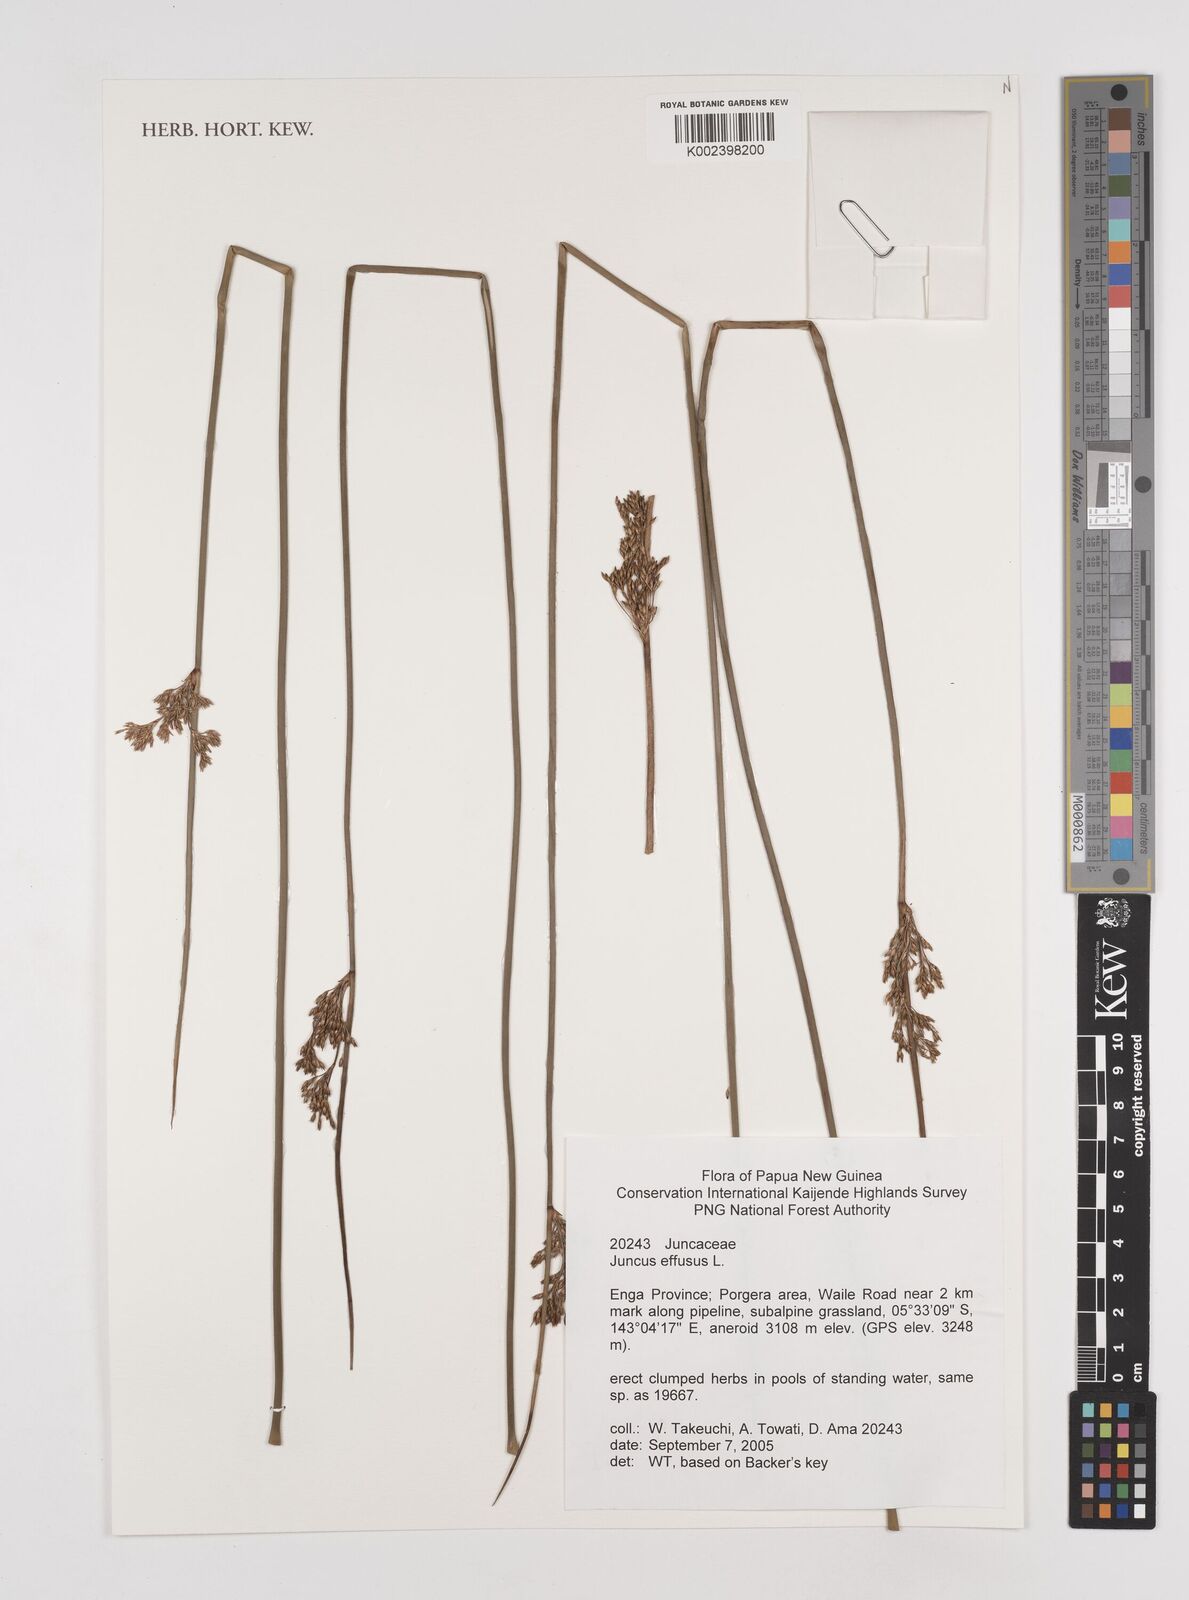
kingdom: Plantae
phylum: Tracheophyta
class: Liliopsida
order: Poales
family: Juncaceae
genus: Juncus
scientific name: Juncus decipiens
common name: Lamp rush
